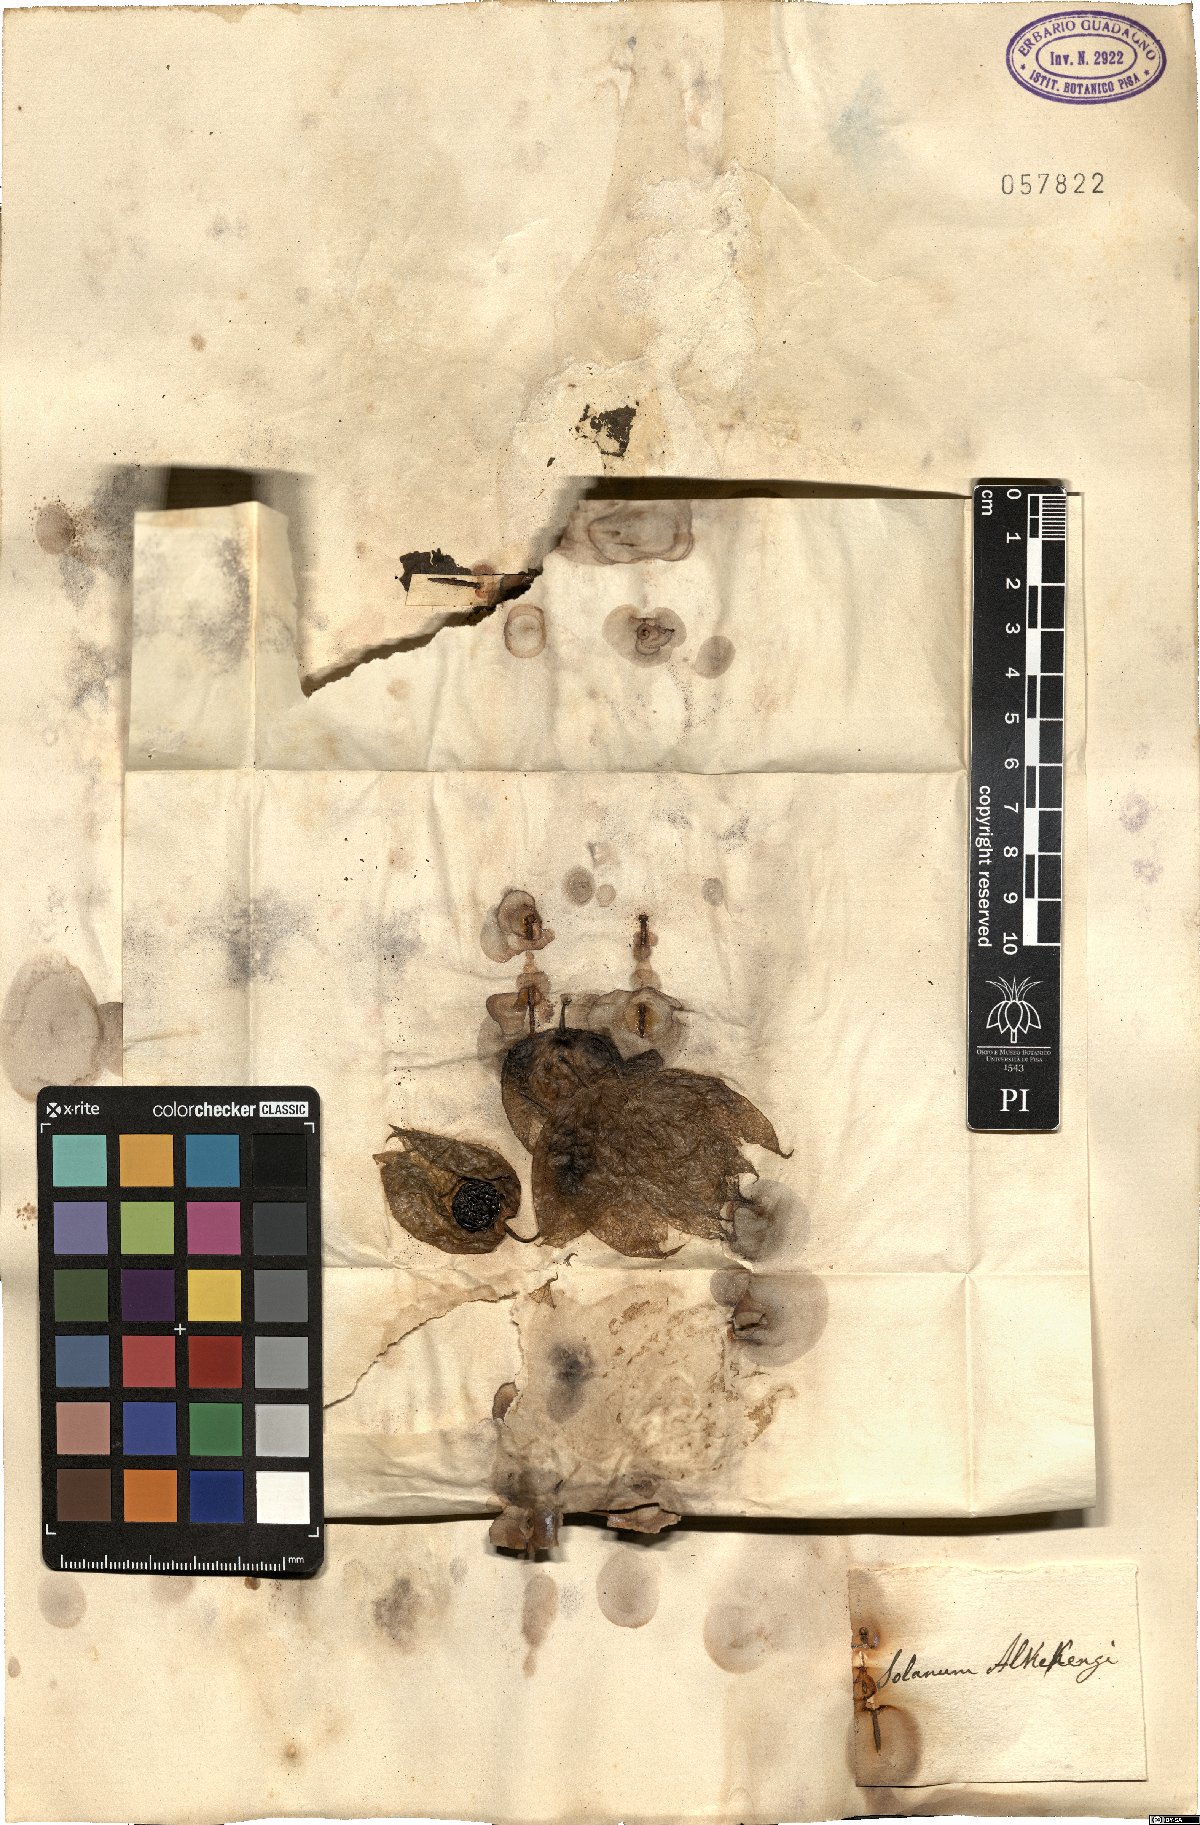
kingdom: Plantae
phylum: Tracheophyta
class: Magnoliopsida
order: Solanales
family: Solanaceae
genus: Alkekengi
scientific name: Alkekengi officinarum
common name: Japanese-lantern
